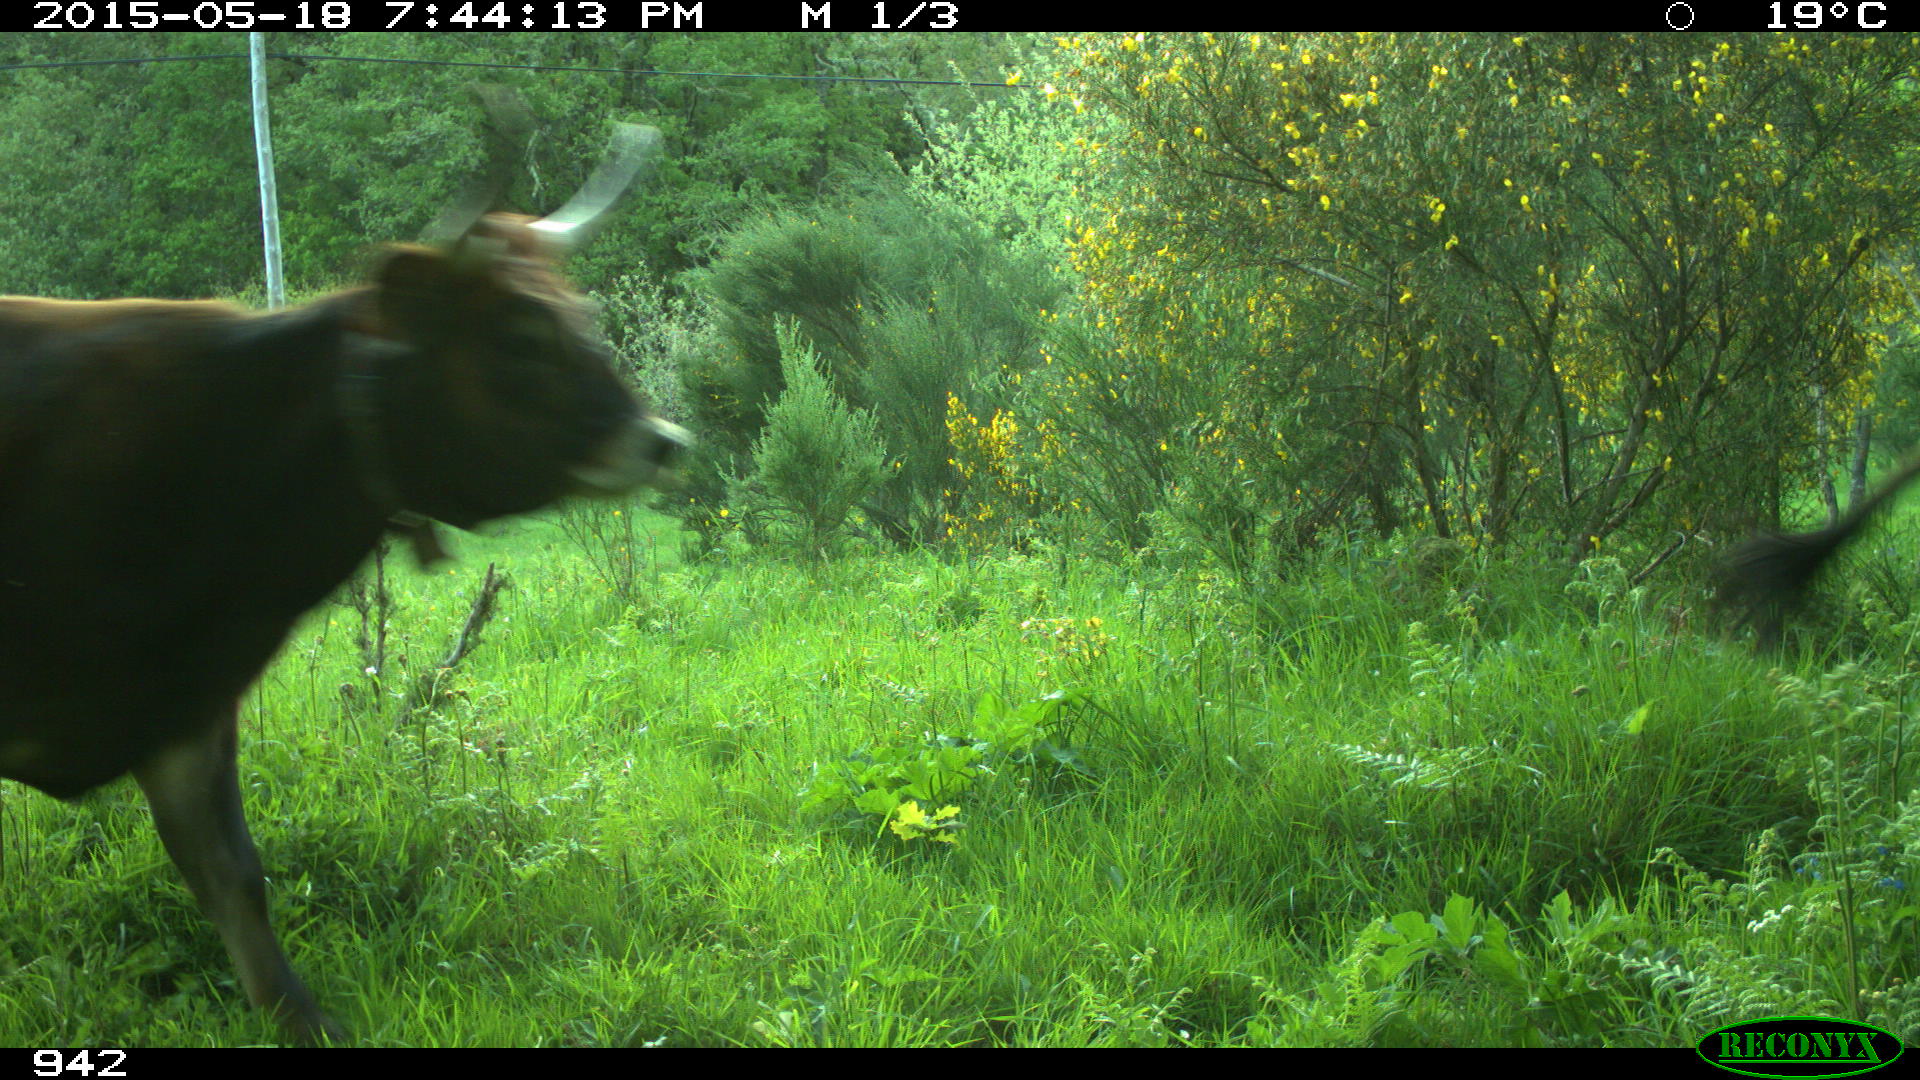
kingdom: Animalia
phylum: Chordata
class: Mammalia
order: Artiodactyla
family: Bovidae
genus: Bos
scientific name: Bos taurus
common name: Domesticated cattle
